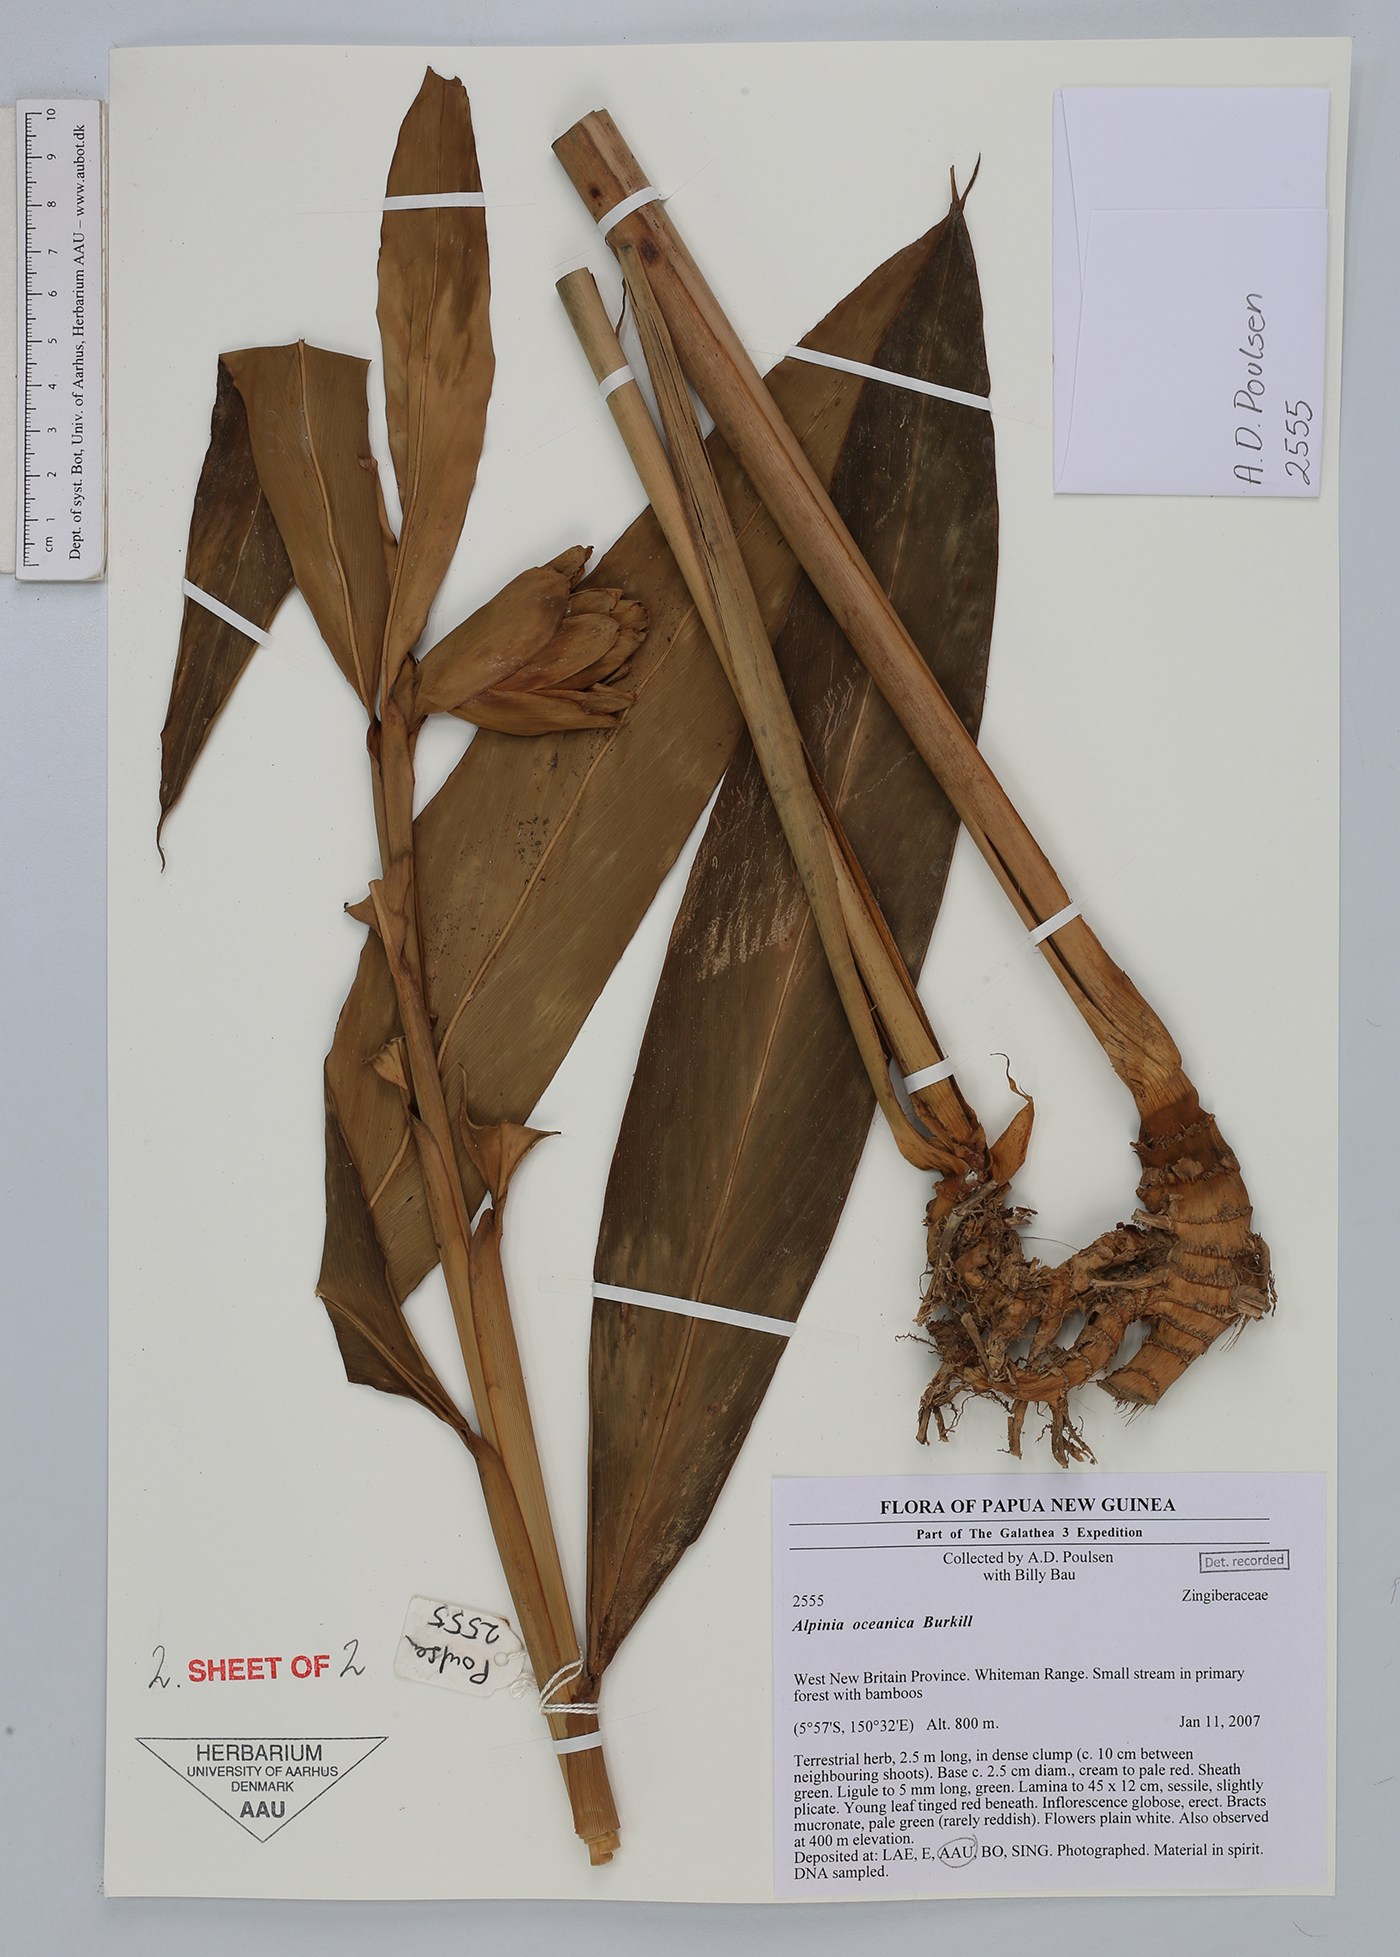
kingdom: Plantae
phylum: Tracheophyta
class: Liliopsida
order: Zingiberales
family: Zingiberaceae
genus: Alpinia
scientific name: Alpinia oceanica
